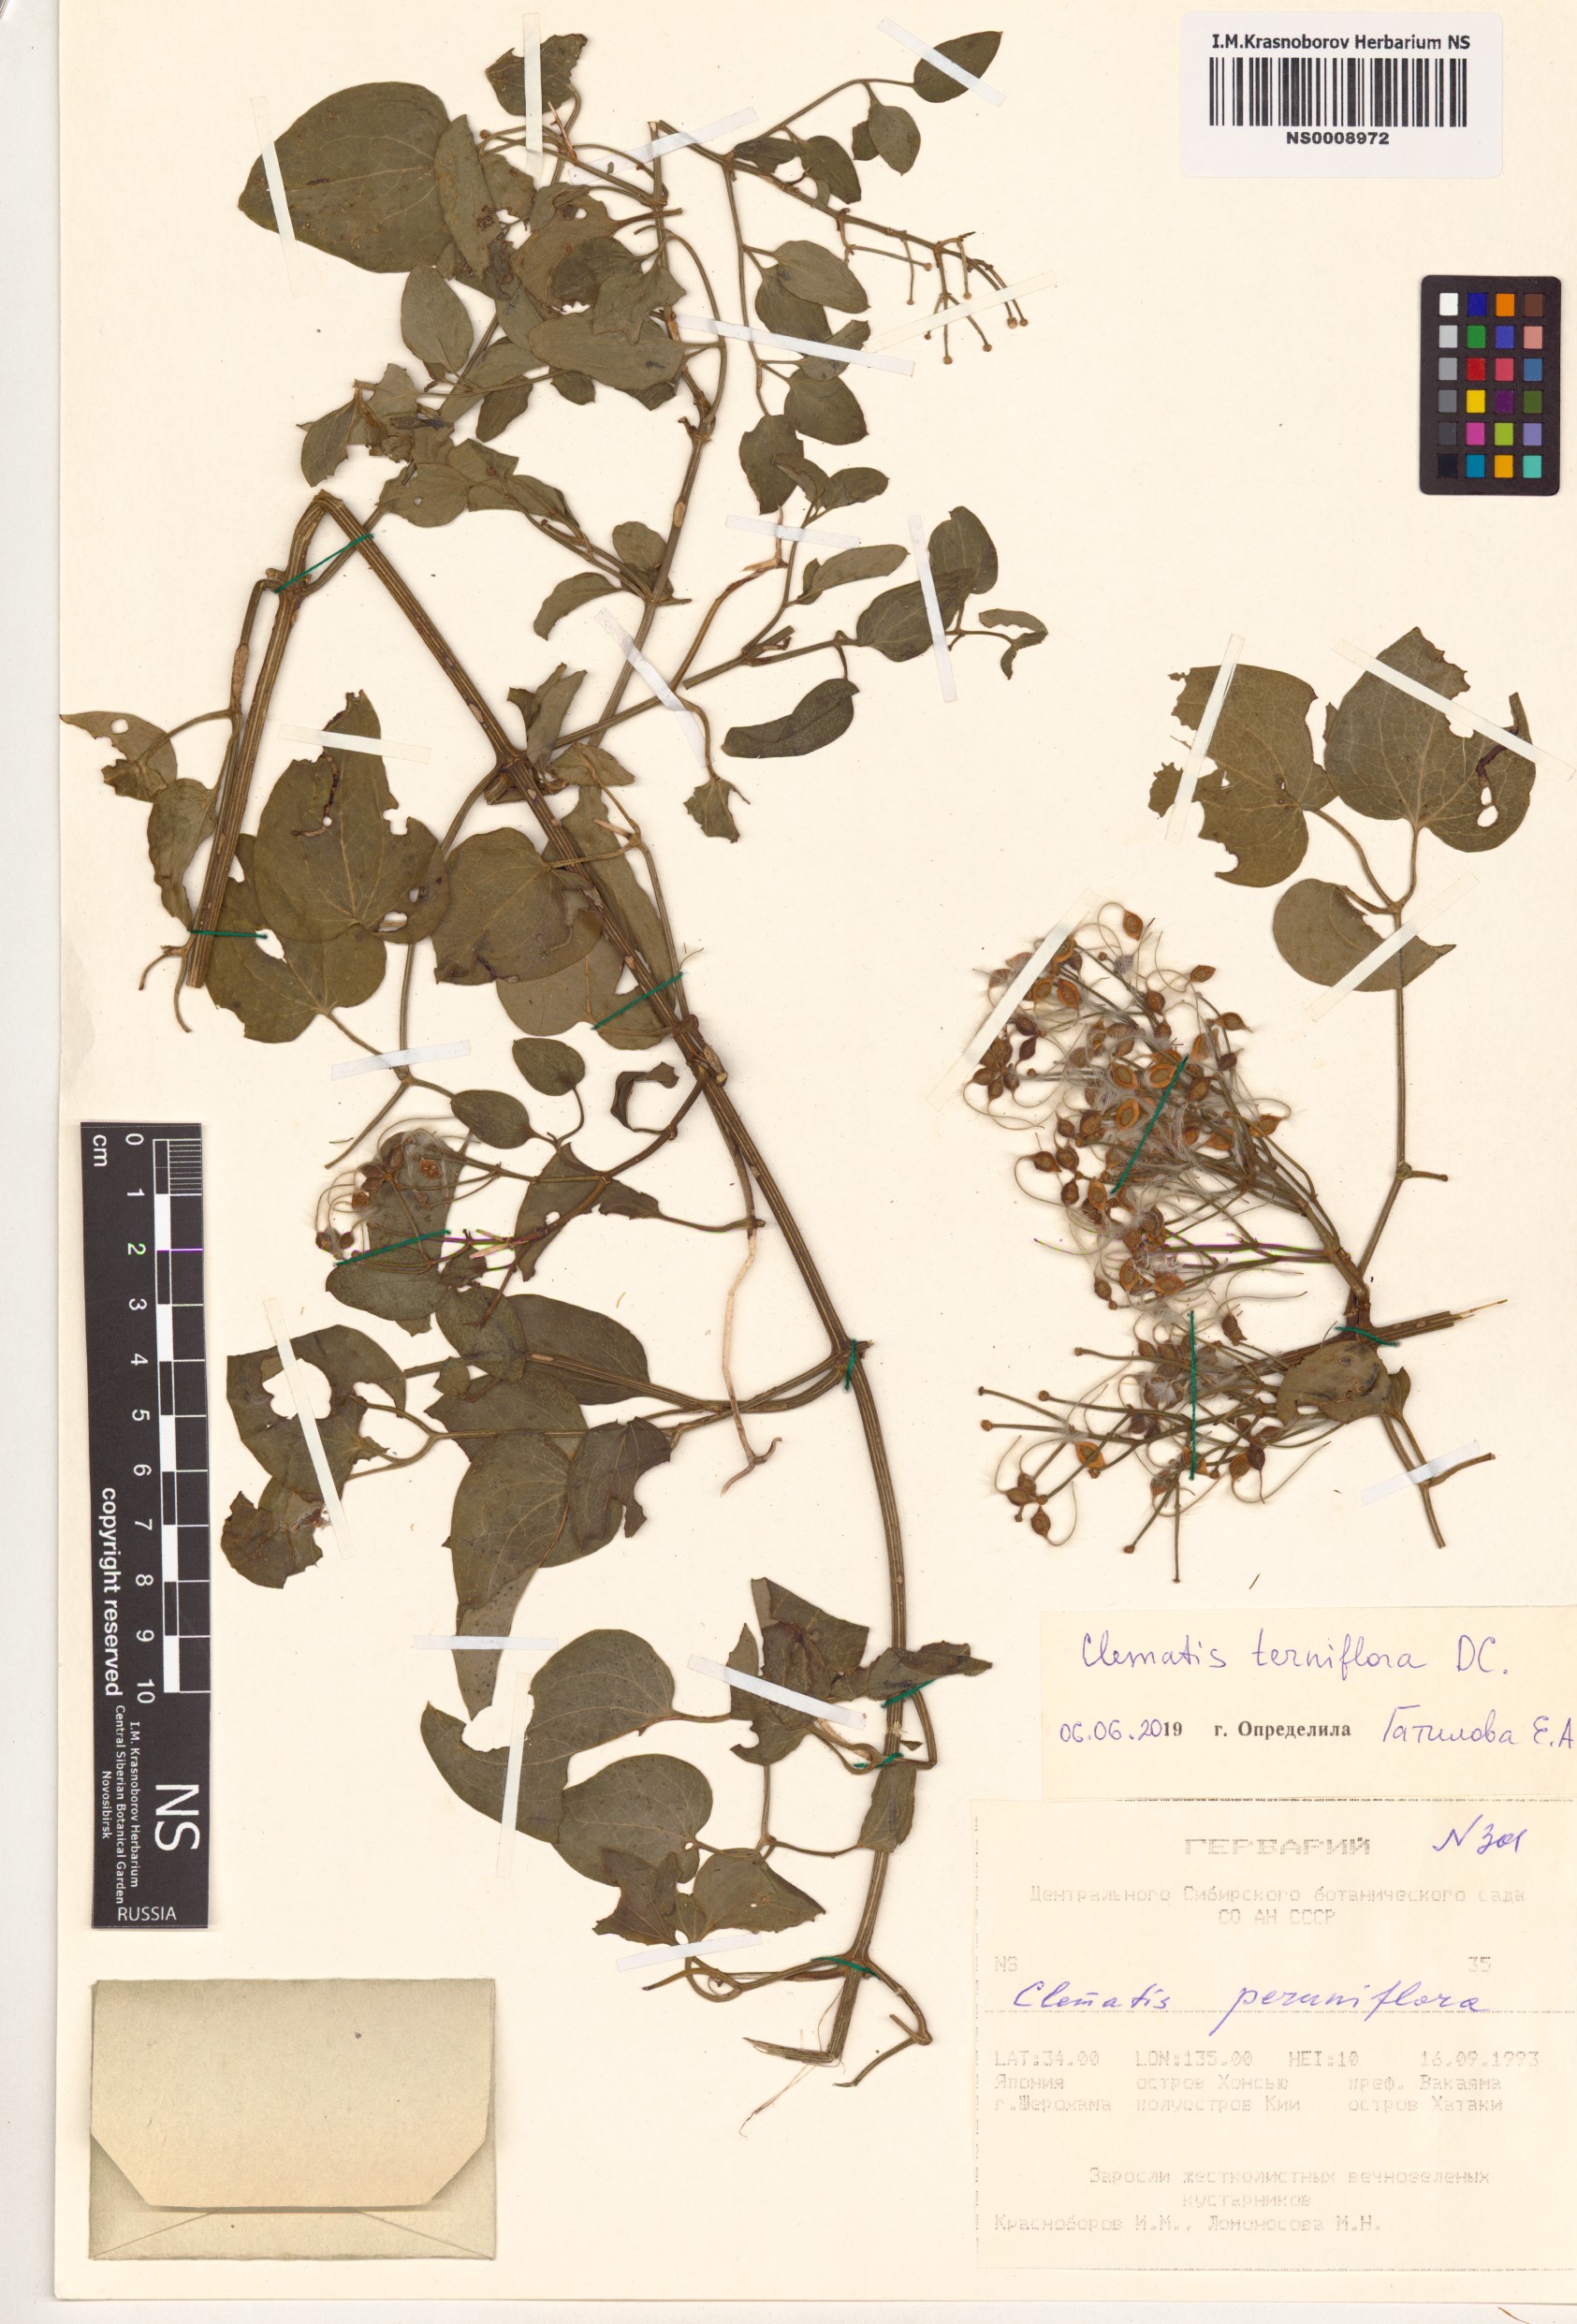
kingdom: Plantae
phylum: Tracheophyta
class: Magnoliopsida
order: Ranunculales
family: Ranunculaceae
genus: Clematis
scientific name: Clematis terniflora
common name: Sweet autumn clematis
